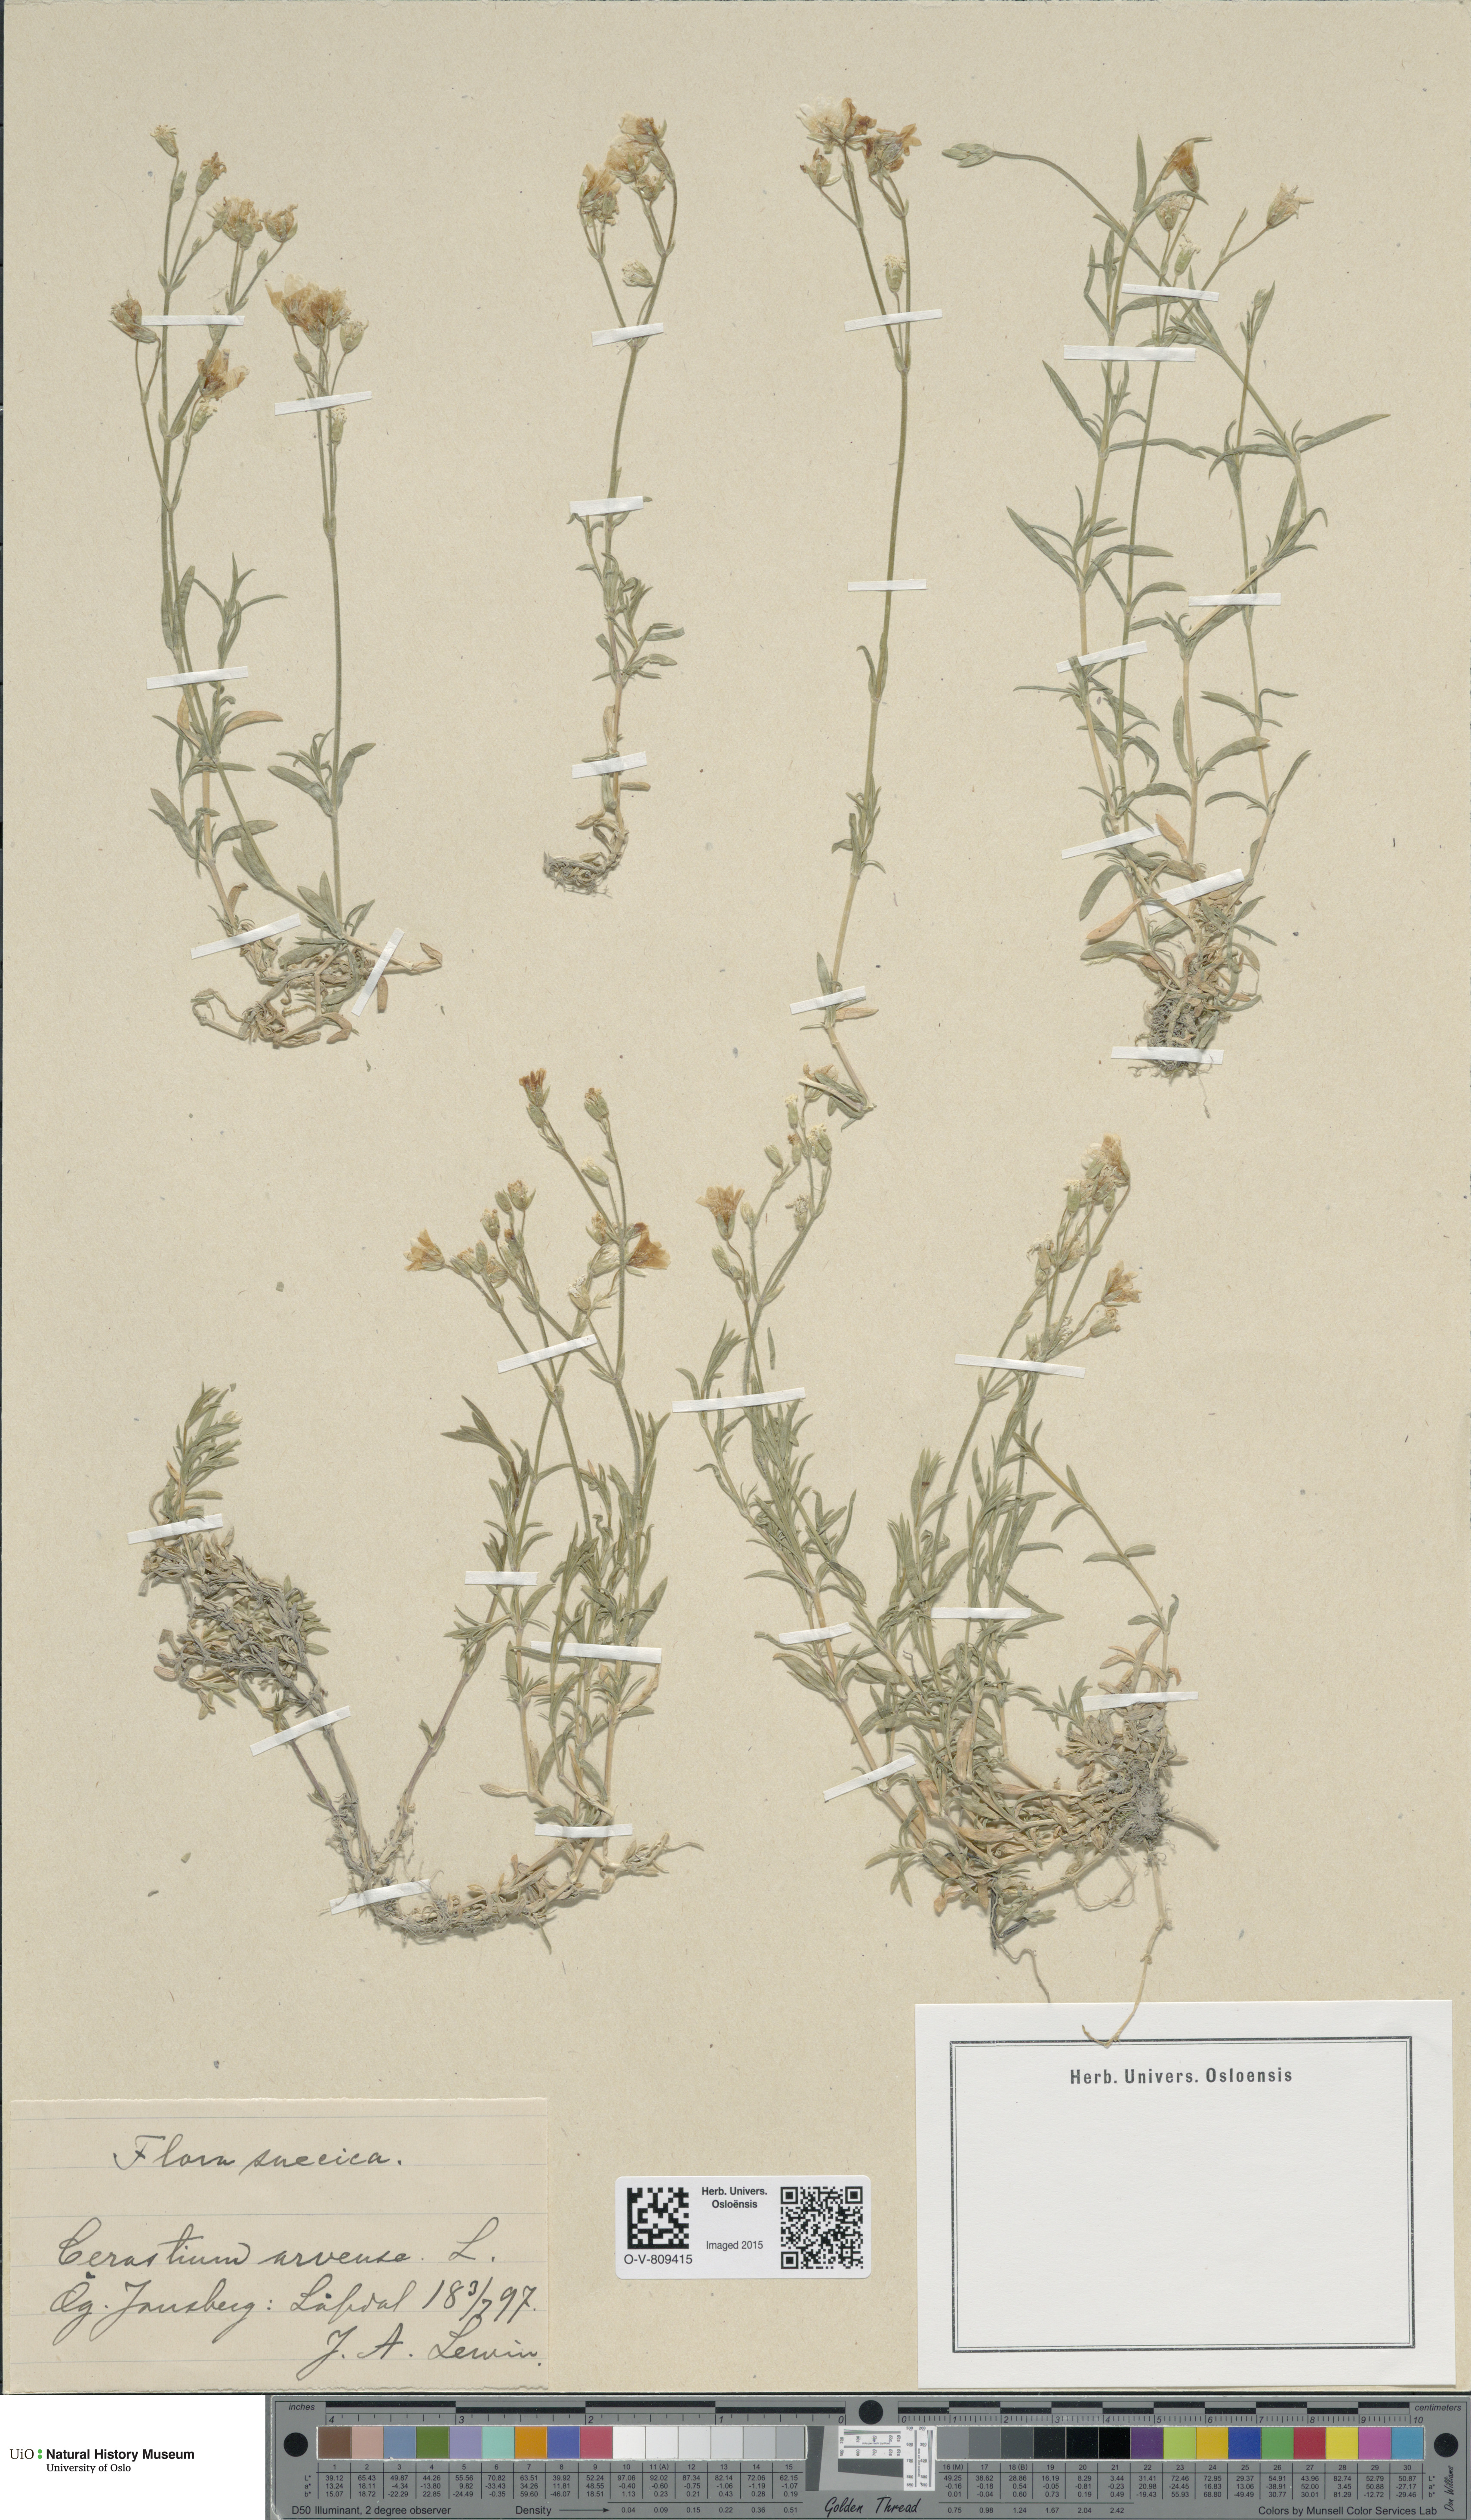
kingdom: Plantae
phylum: Tracheophyta
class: Magnoliopsida
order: Caryophyllales
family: Caryophyllaceae
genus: Cerastium
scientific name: Cerastium arvense
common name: Field mouse-ear
